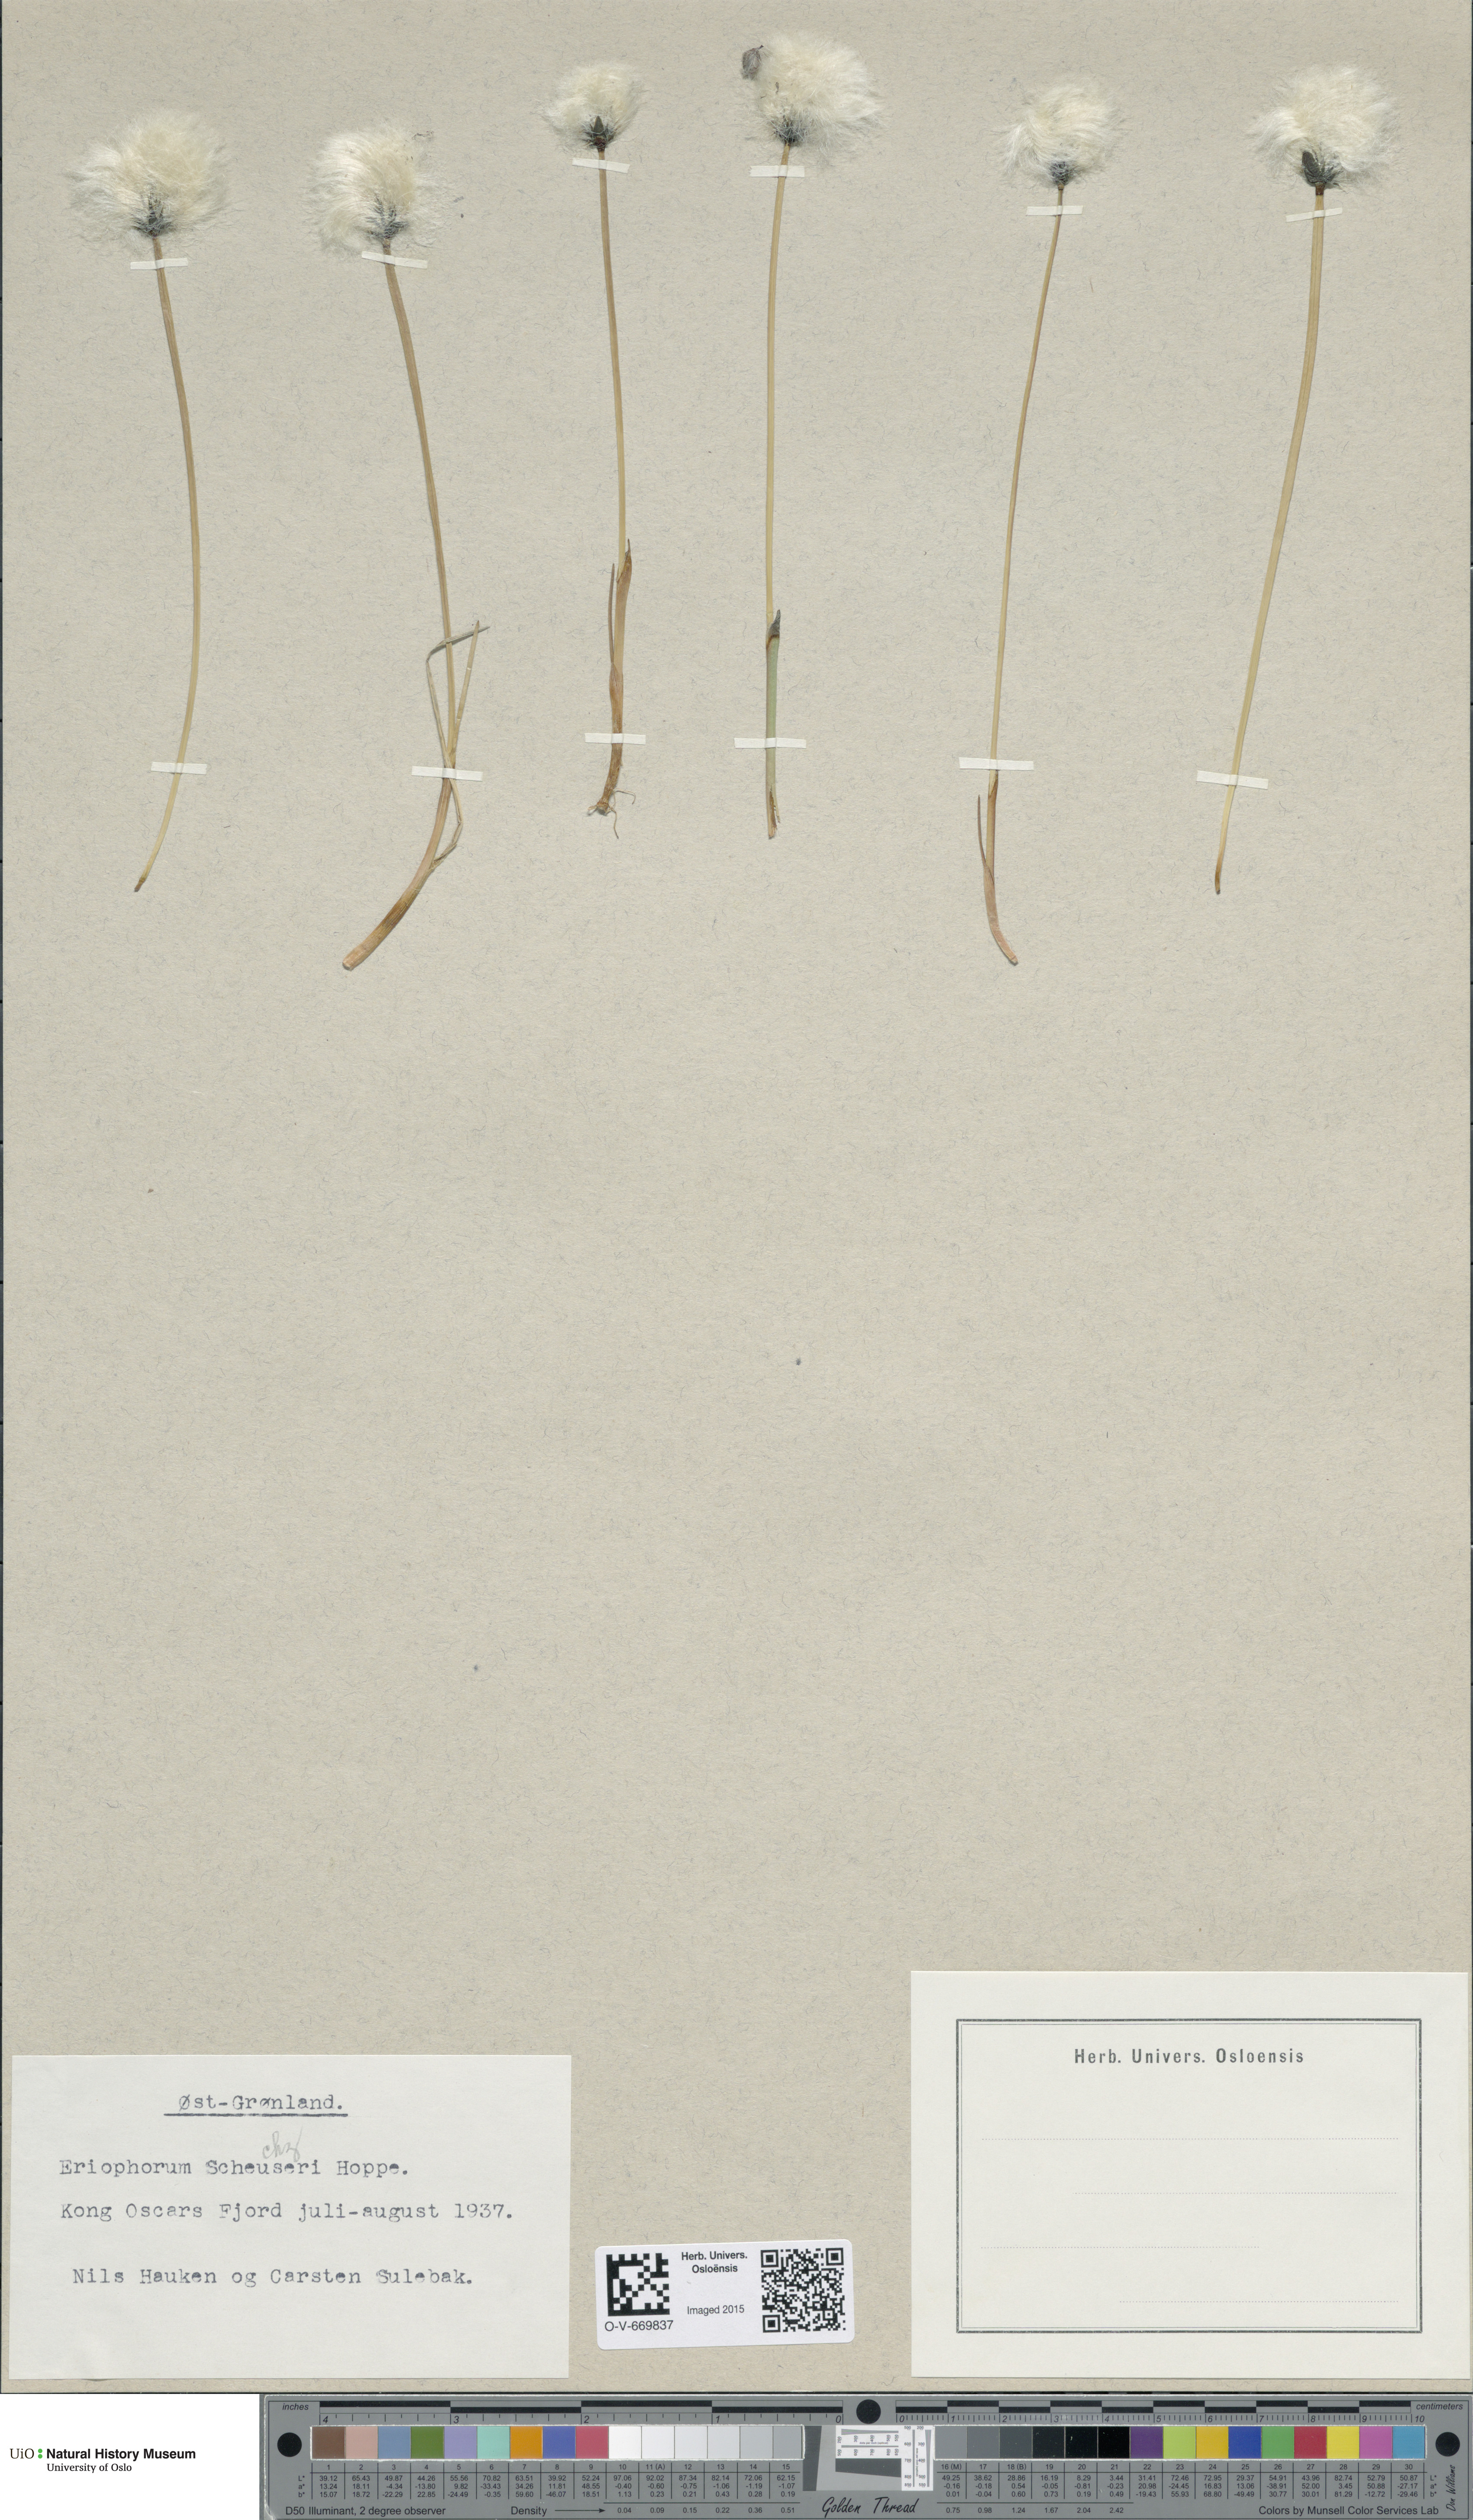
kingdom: Plantae
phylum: Tracheophyta
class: Liliopsida
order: Poales
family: Cyperaceae
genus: Eriophorum
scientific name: Eriophorum scheuchzeri
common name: Scheuchzer's cottongrass
